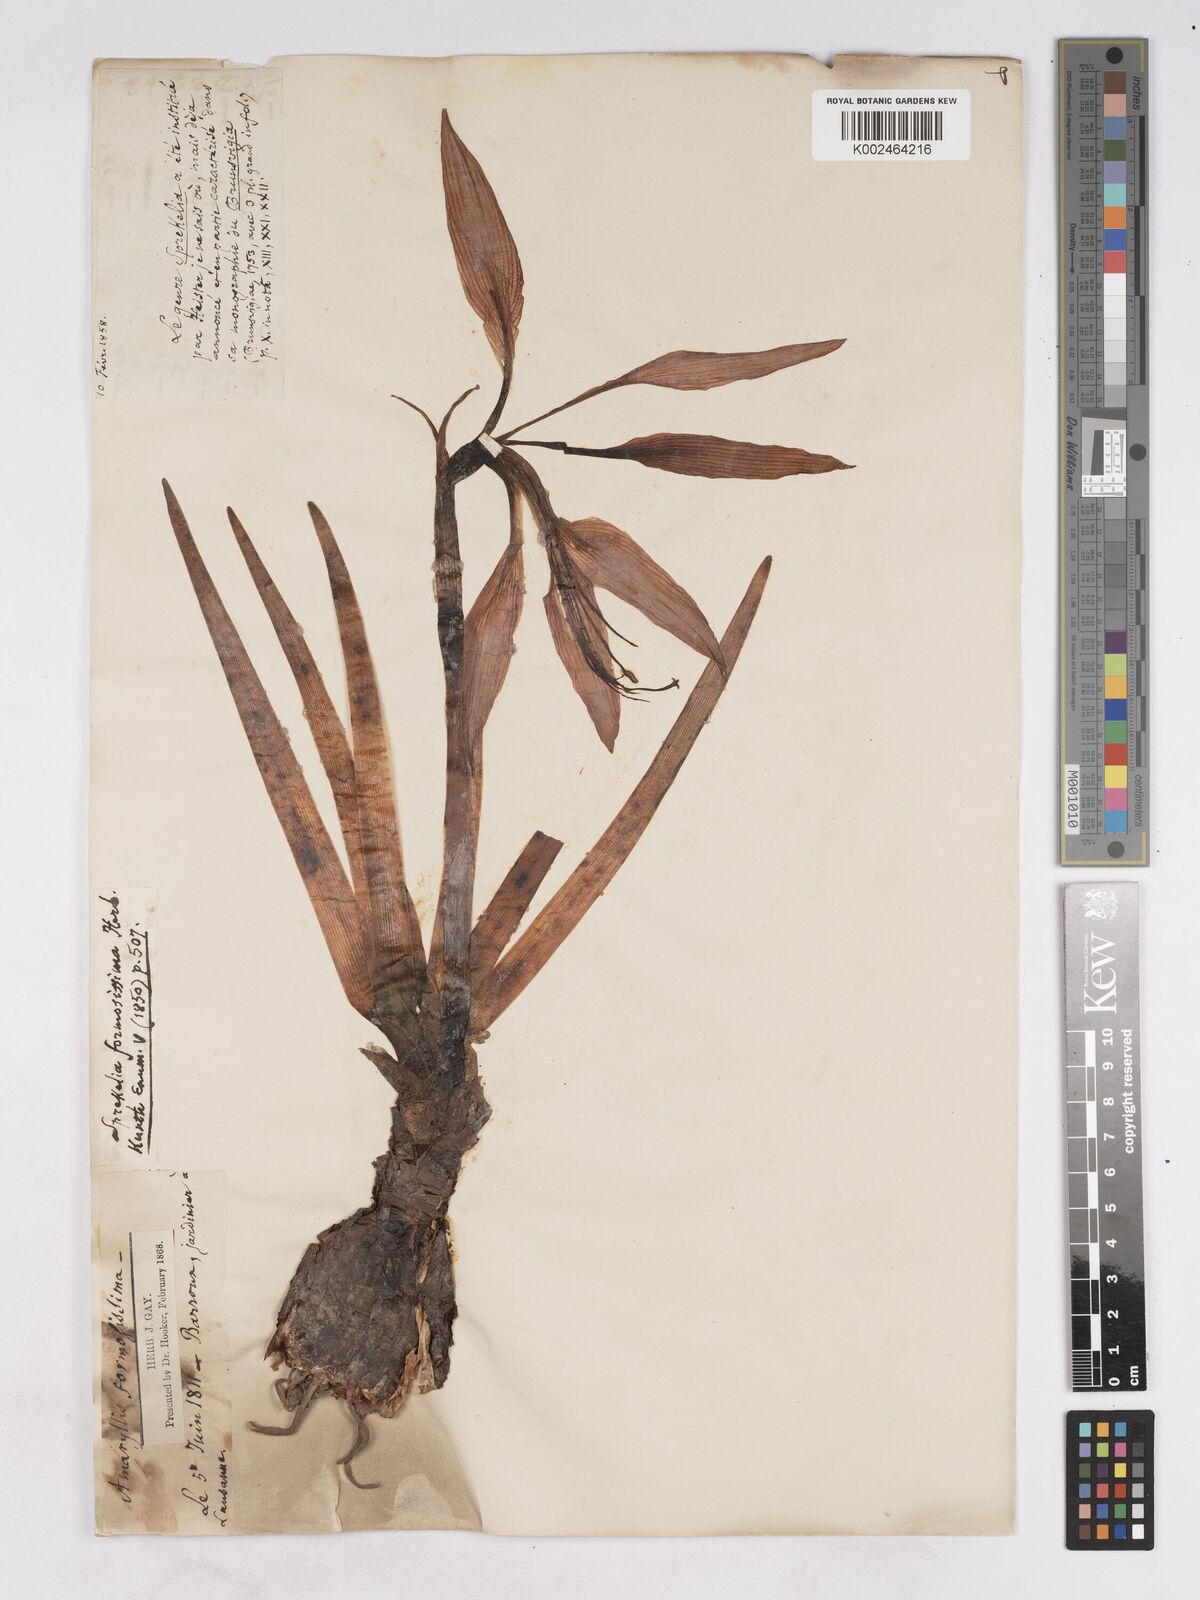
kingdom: Plantae
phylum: Tracheophyta
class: Liliopsida
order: Asparagales
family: Amaryllidaceae
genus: Sprekelia
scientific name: Sprekelia formosissima
